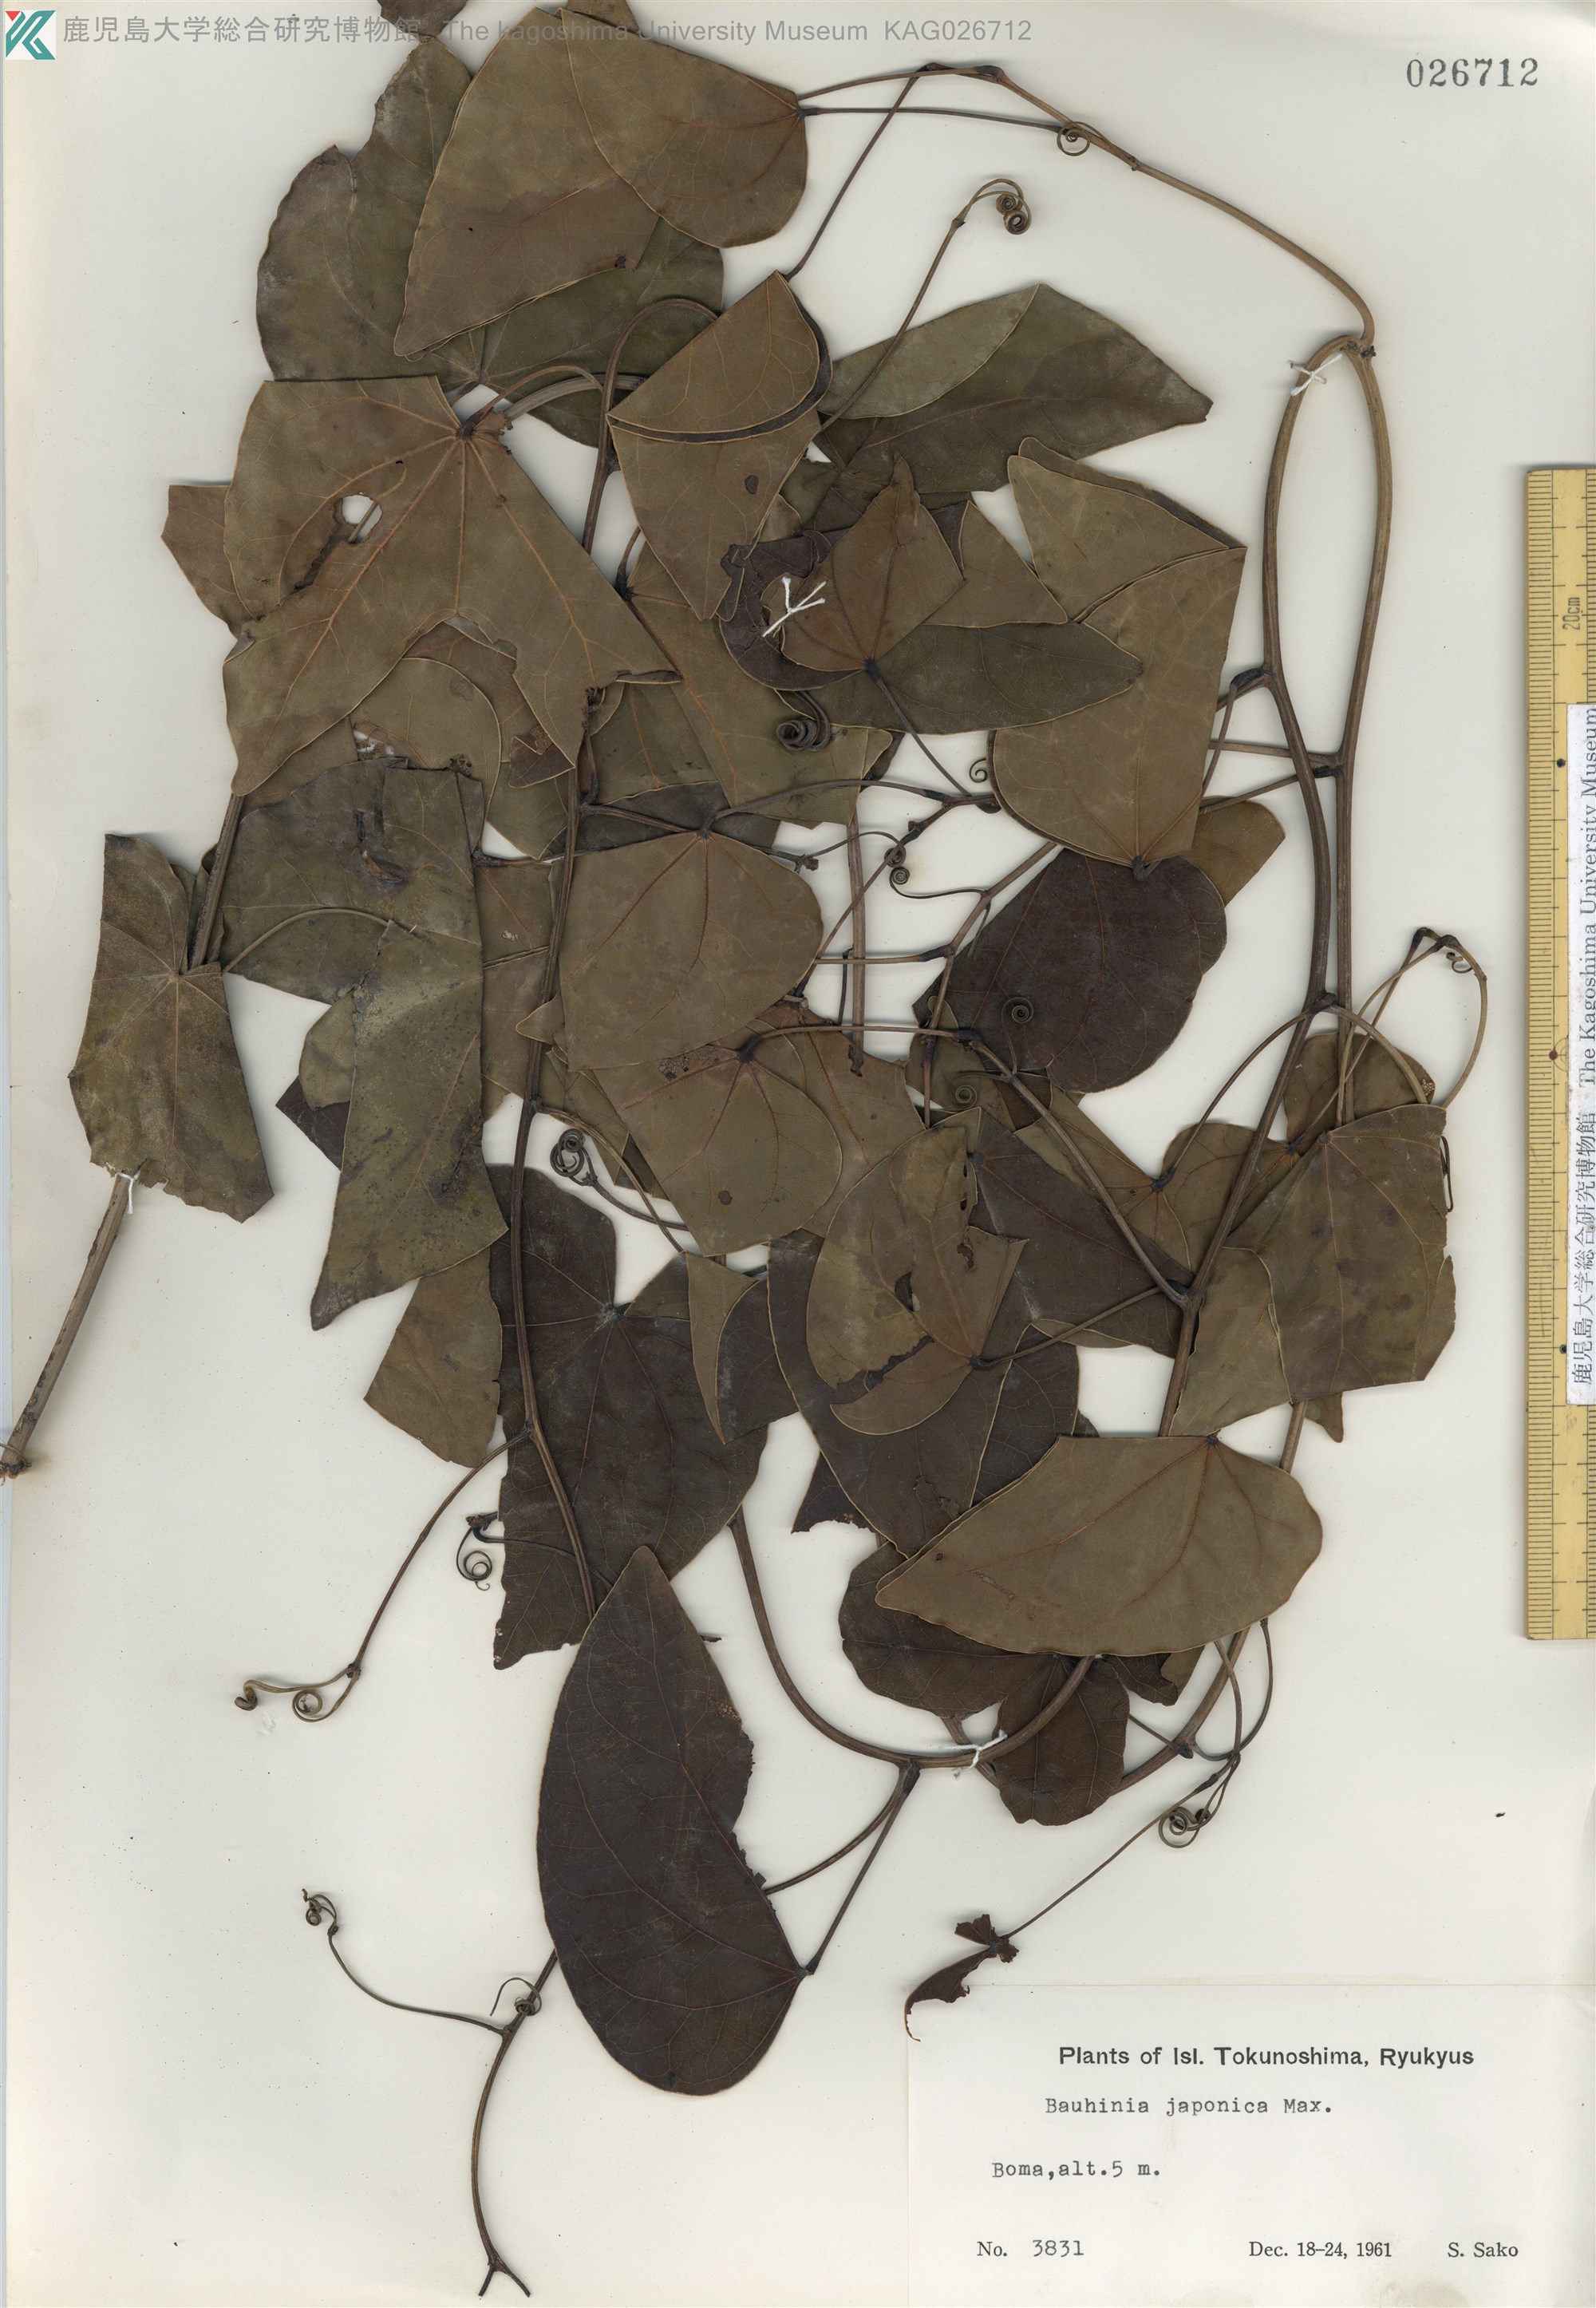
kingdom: Plantae
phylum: Tracheophyta
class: Magnoliopsida
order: Fabales
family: Fabaceae
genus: Phanera
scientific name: Phanera japonica
